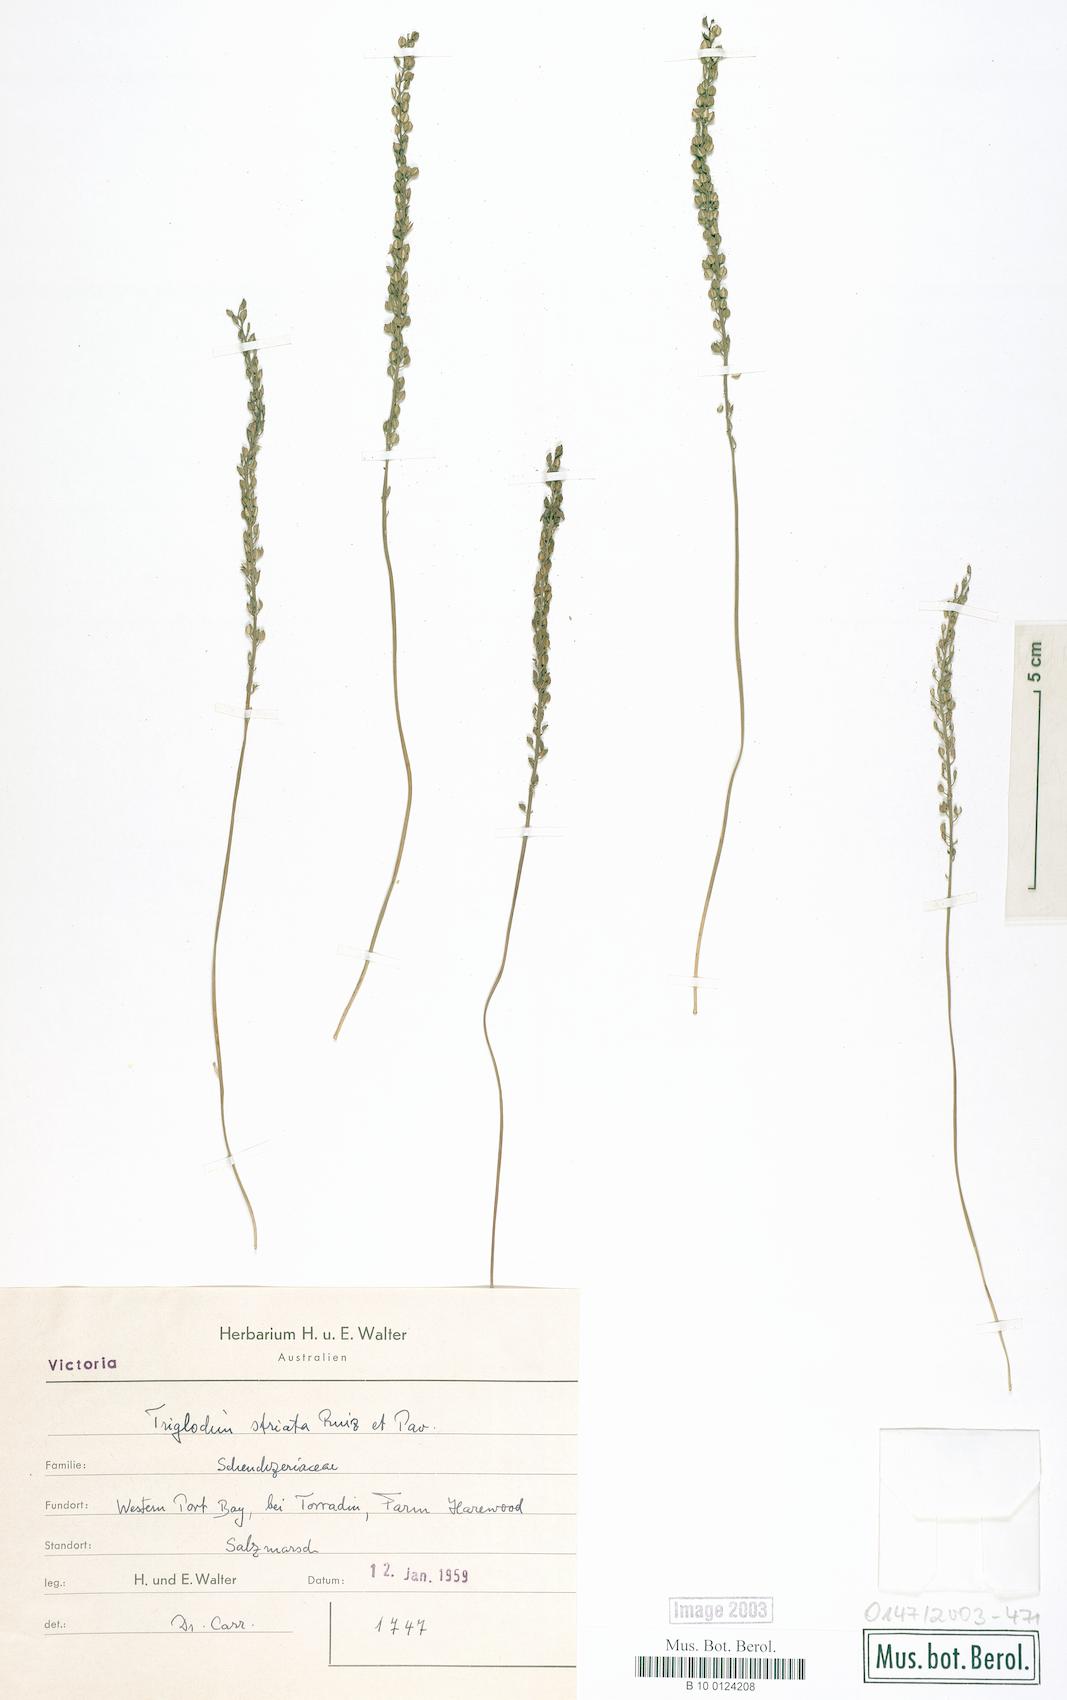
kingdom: Plantae
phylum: Tracheophyta
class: Liliopsida
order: Alismatales
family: Juncaginaceae
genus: Triglochin
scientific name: Triglochin striata
